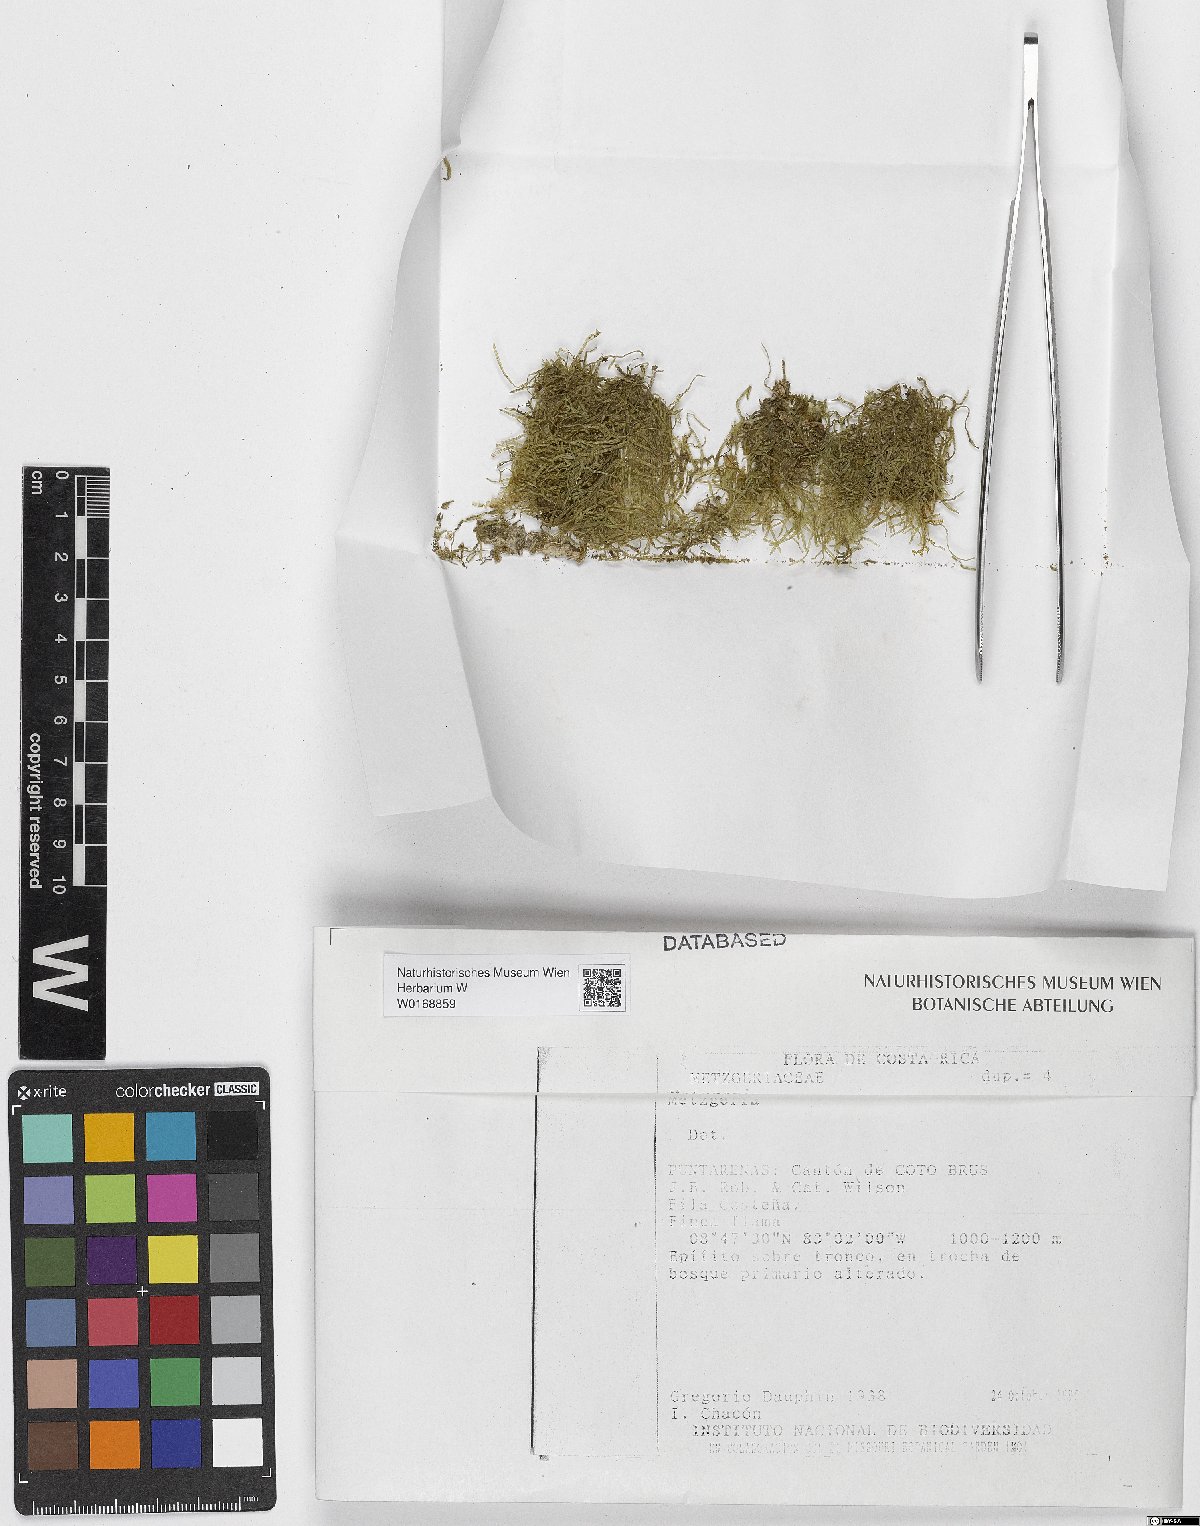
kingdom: Plantae
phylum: Marchantiophyta
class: Jungermanniopsida
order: Metzgeriales
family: Metzgeriaceae
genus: Metzgeria
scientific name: Metzgeria
